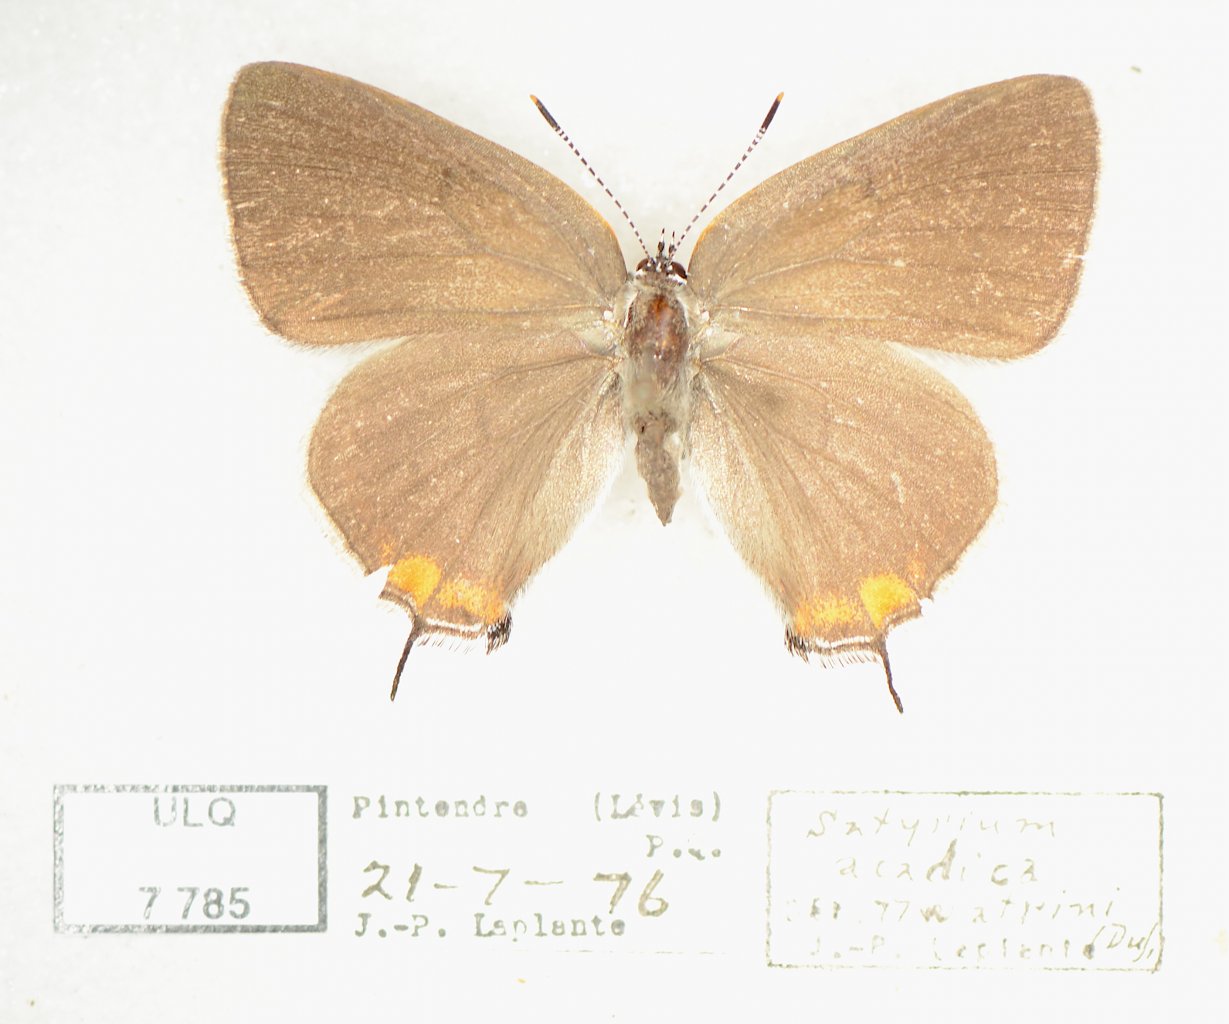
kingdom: Animalia
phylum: Arthropoda
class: Insecta
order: Lepidoptera
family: Lycaenidae
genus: Strymon
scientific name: Strymon acadica
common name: Acadian Hairstreak
